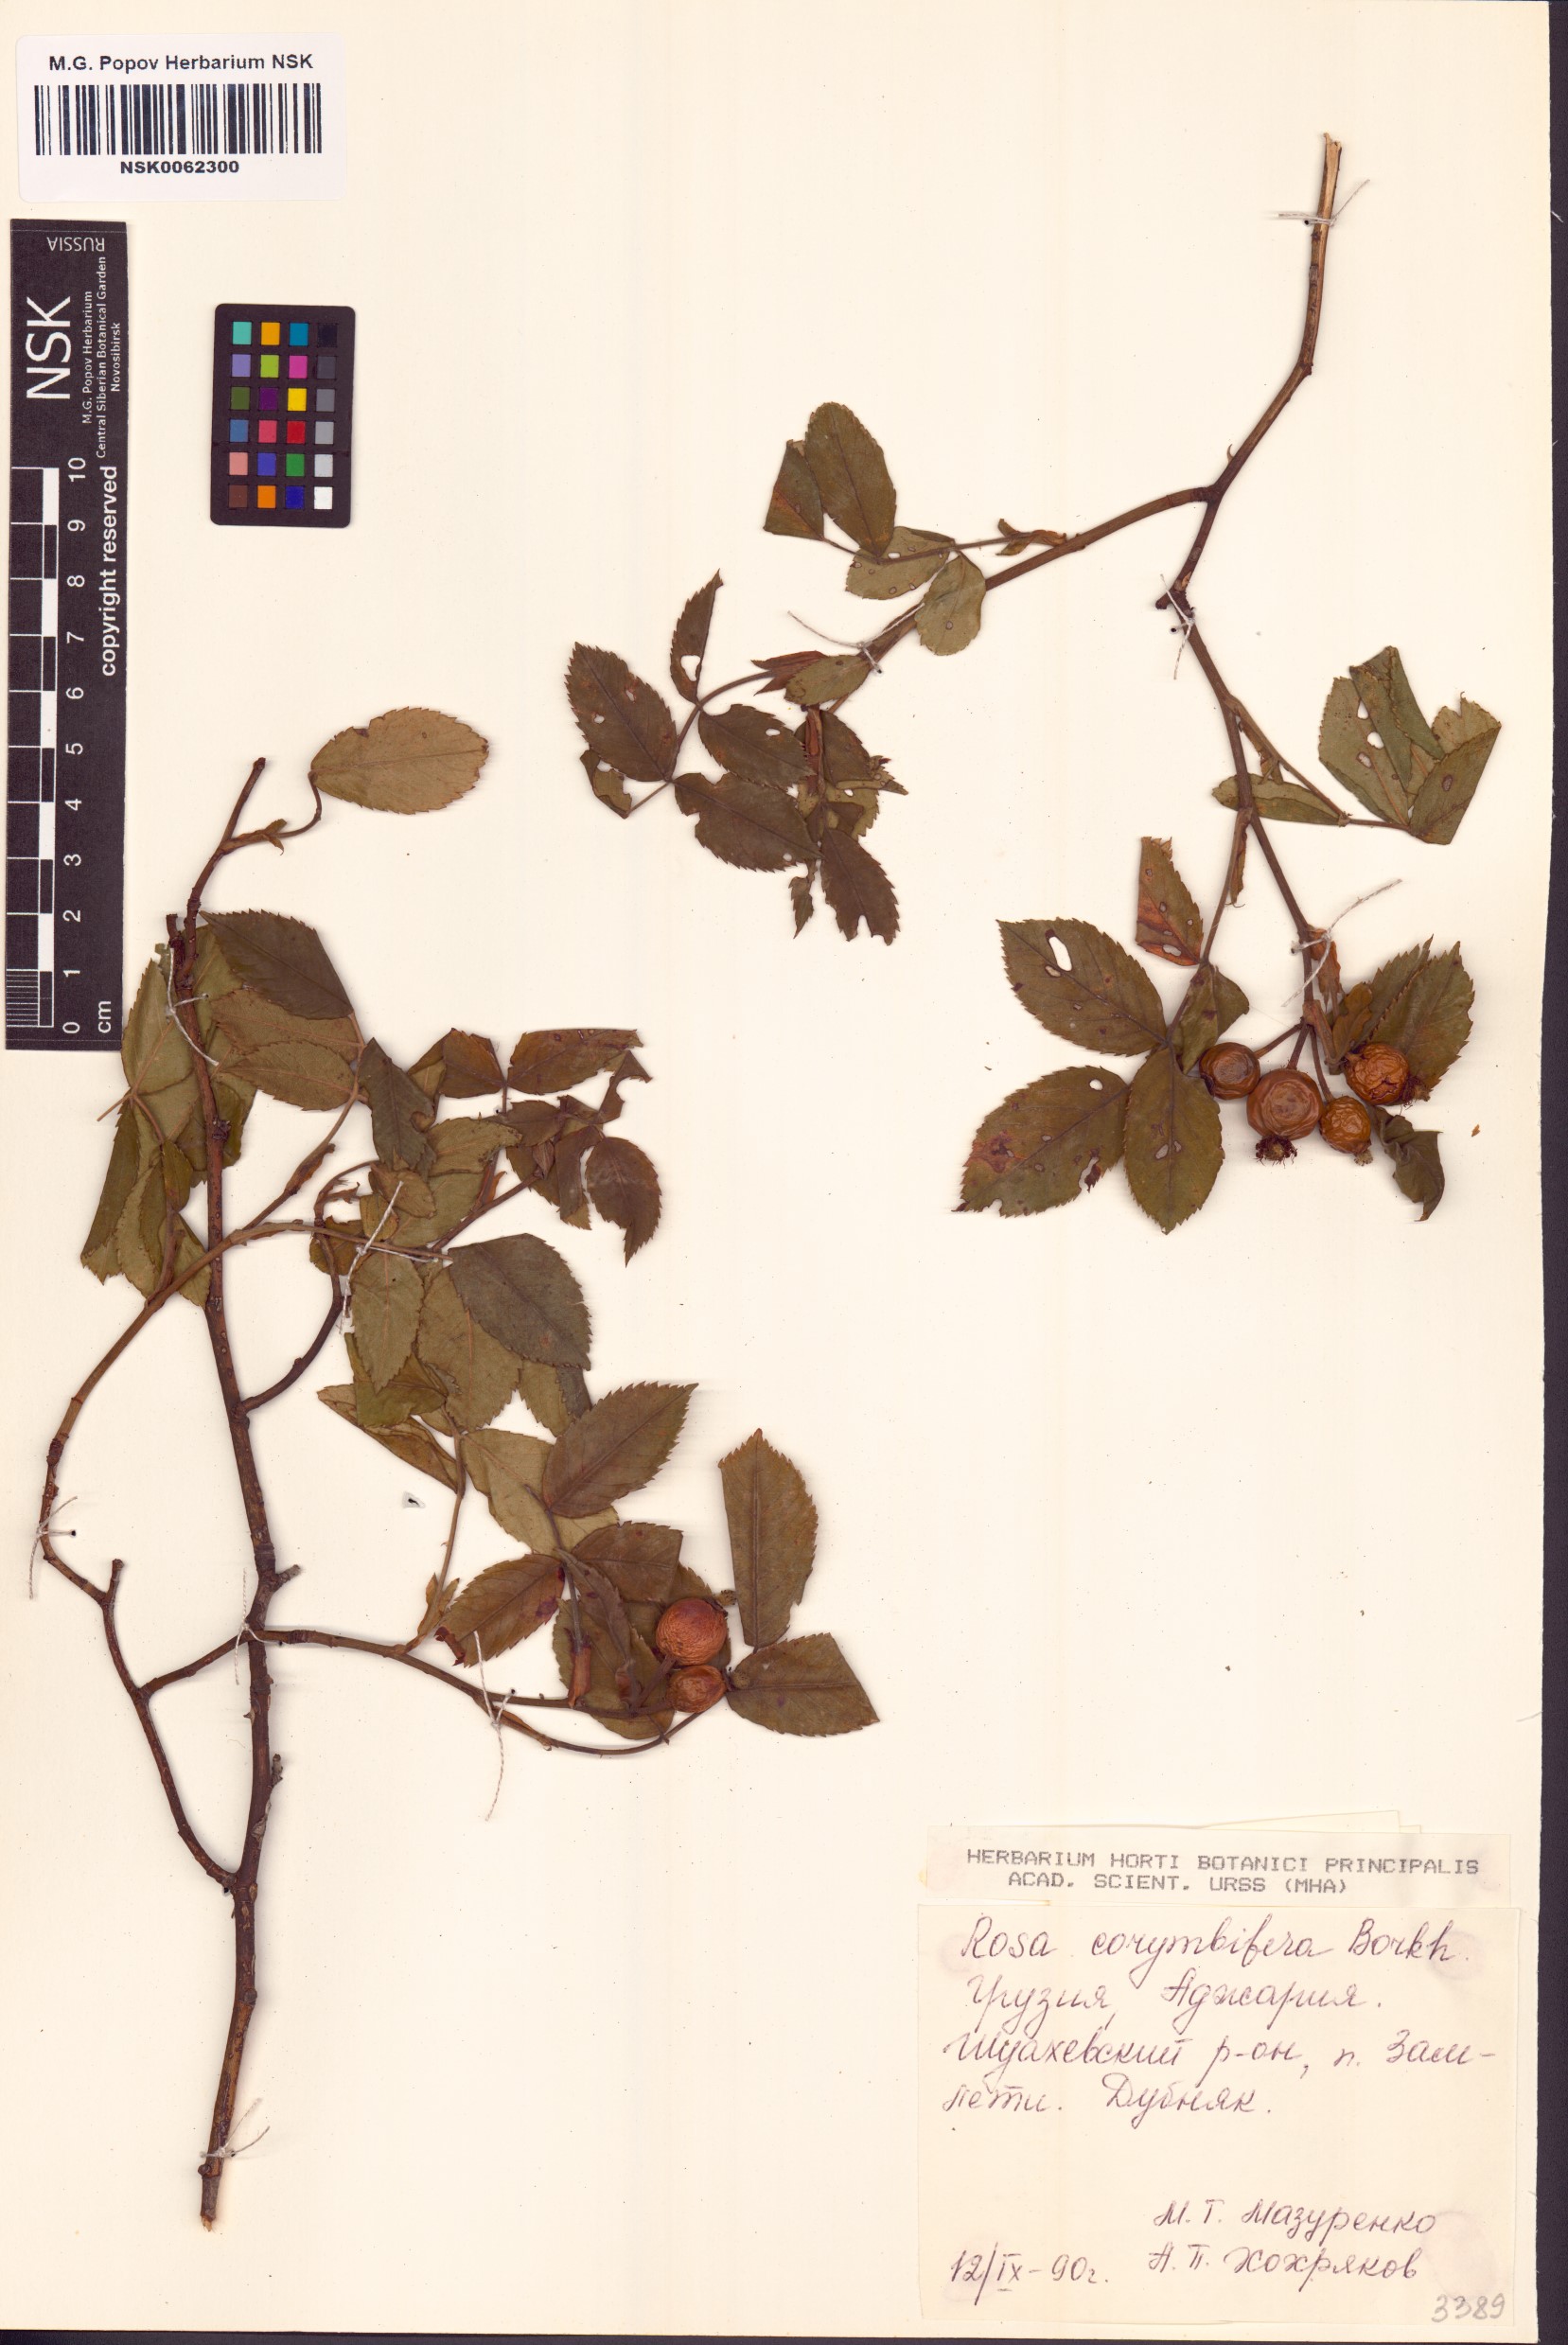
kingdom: Plantae
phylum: Tracheophyta
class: Magnoliopsida
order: Rosales
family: Rosaceae
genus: Rosa
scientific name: Rosa corymbifera
